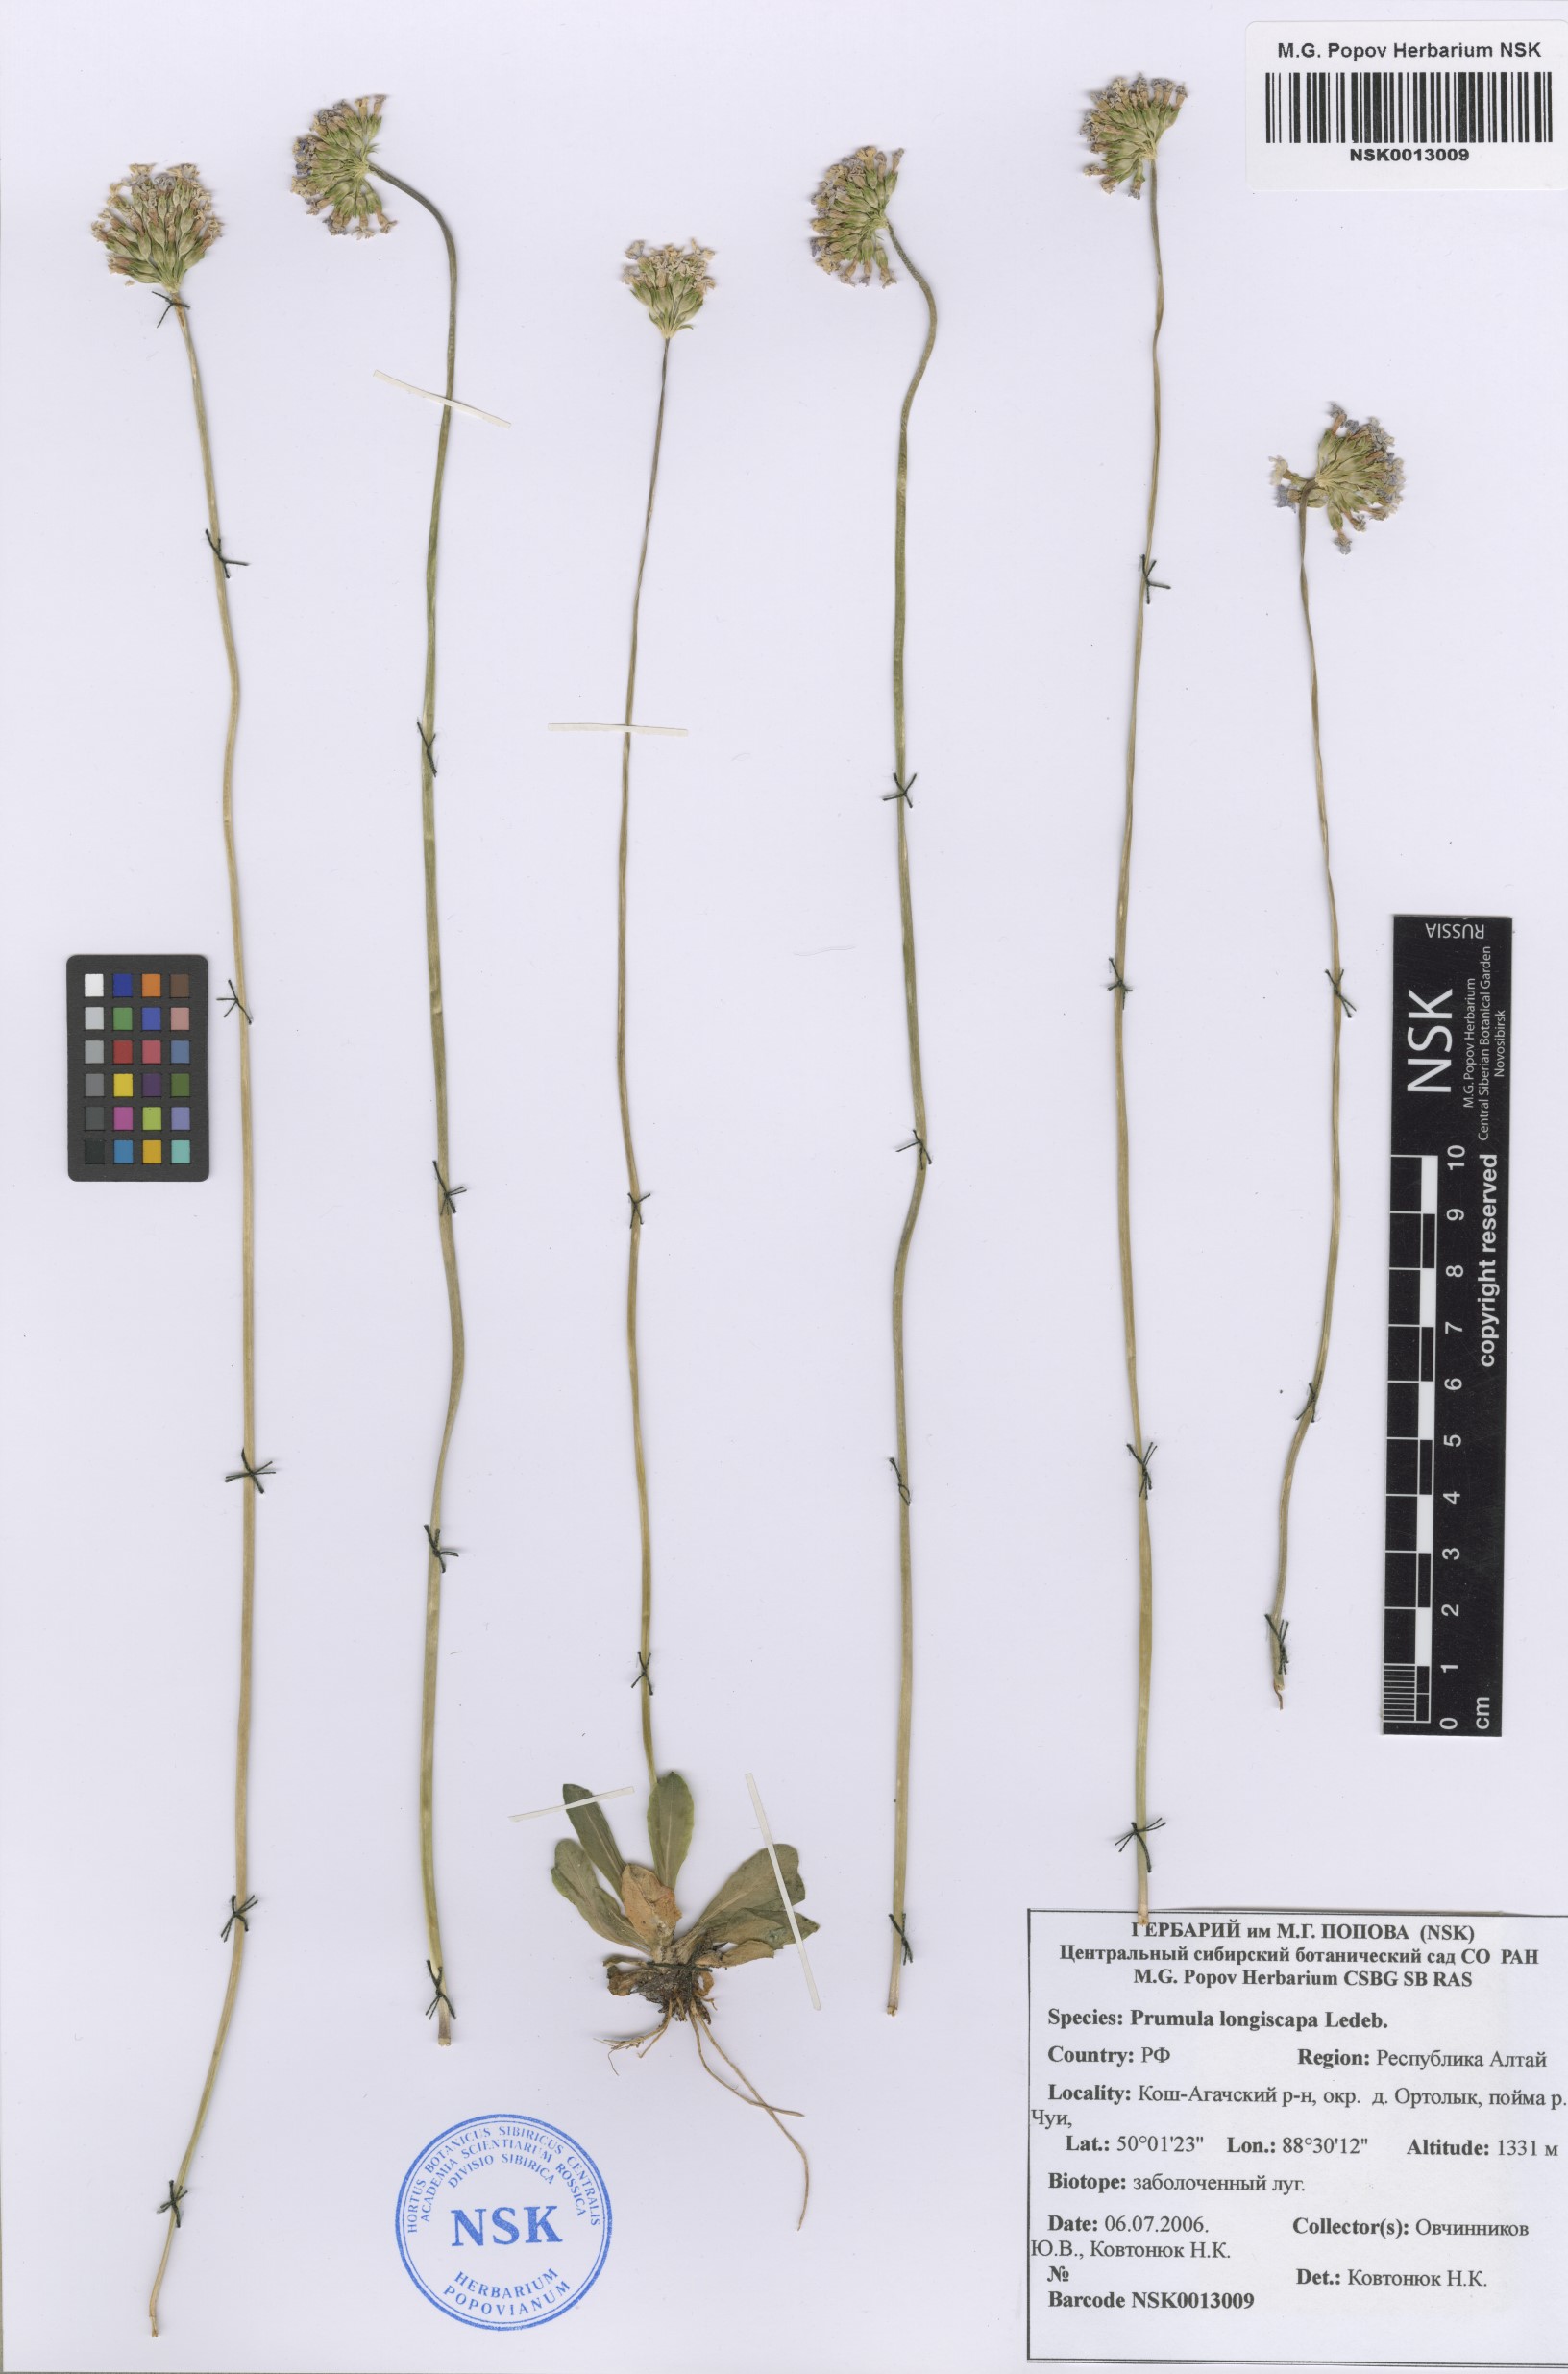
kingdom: Plantae
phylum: Tracheophyta
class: Magnoliopsida
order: Ericales
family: Primulaceae
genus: Primula
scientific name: Primula longiscapa
